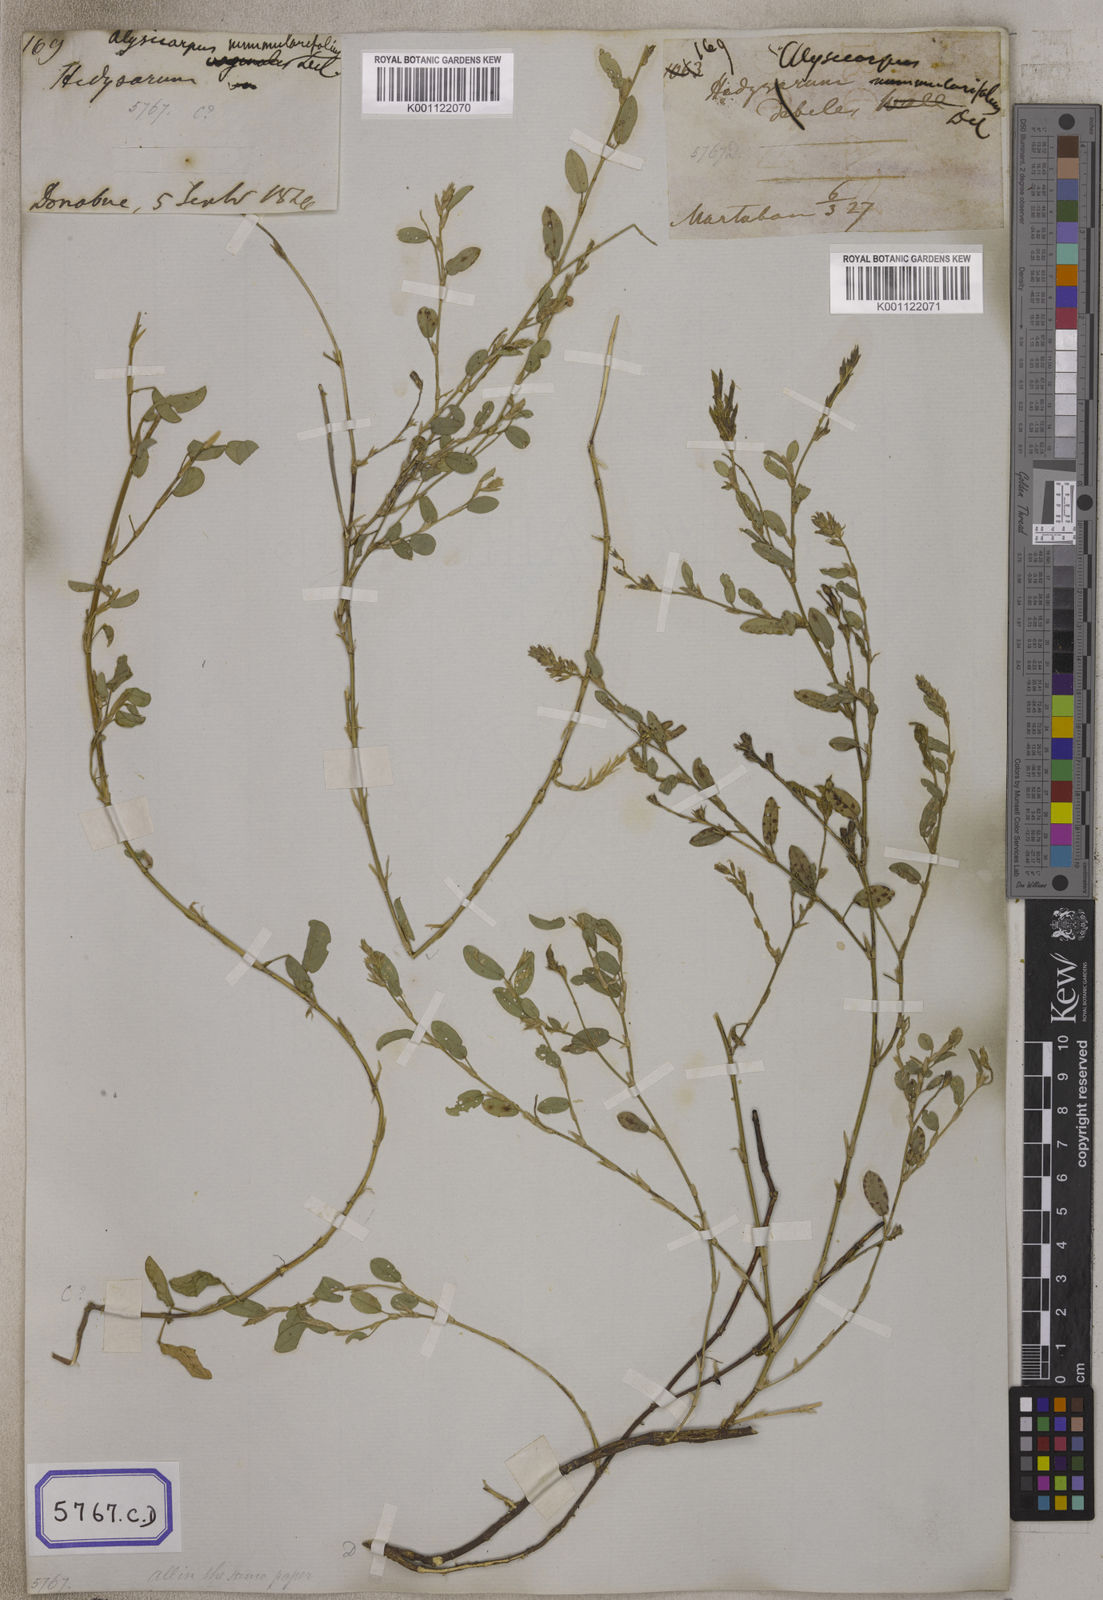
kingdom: Plantae
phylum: Tracheophyta
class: Magnoliopsida
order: Fabales
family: Fabaceae
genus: Alysicarpus
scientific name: Alysicarpus vaginalis
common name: White moneywort
